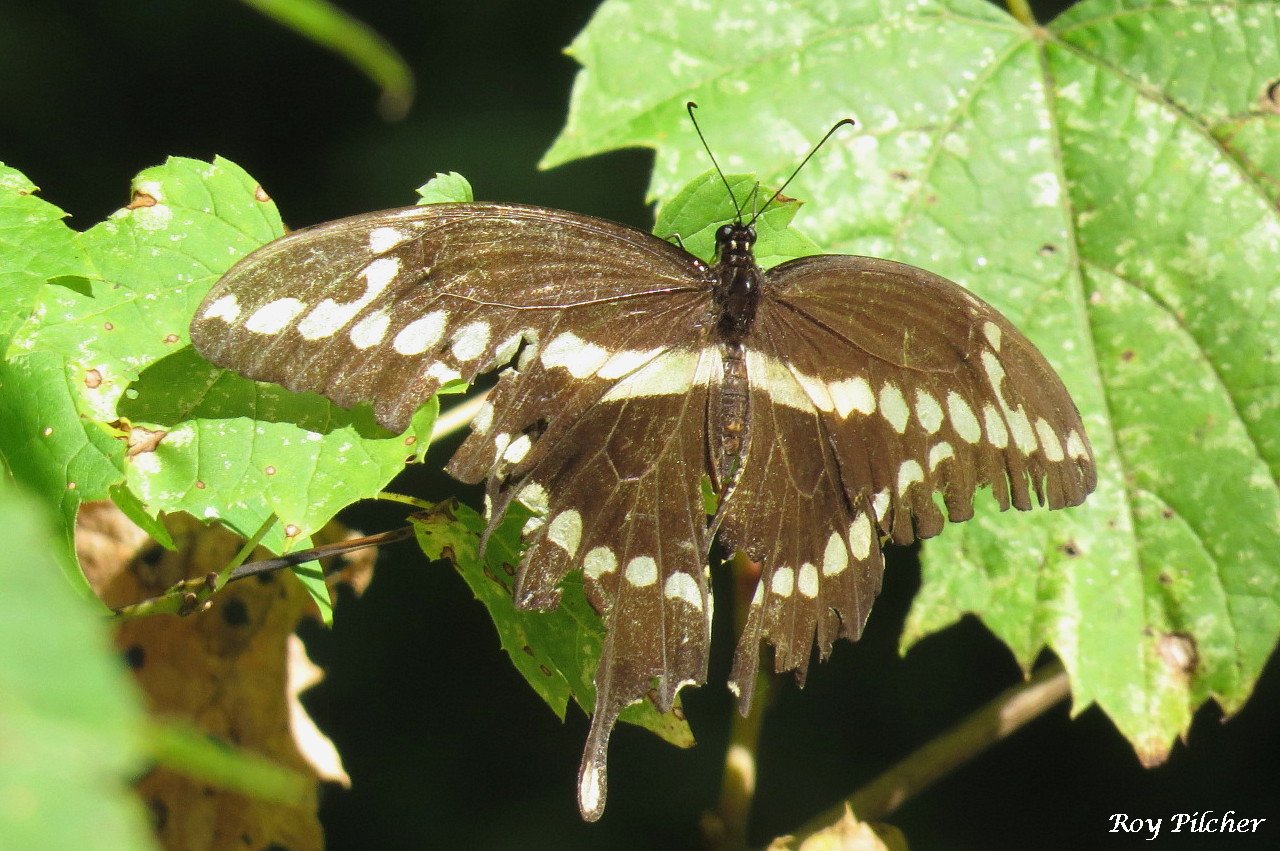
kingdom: Animalia
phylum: Arthropoda
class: Insecta
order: Lepidoptera
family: Papilionidae
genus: Papilio
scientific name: Papilio cresphontes
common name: Eastern Giant Swallowtail
